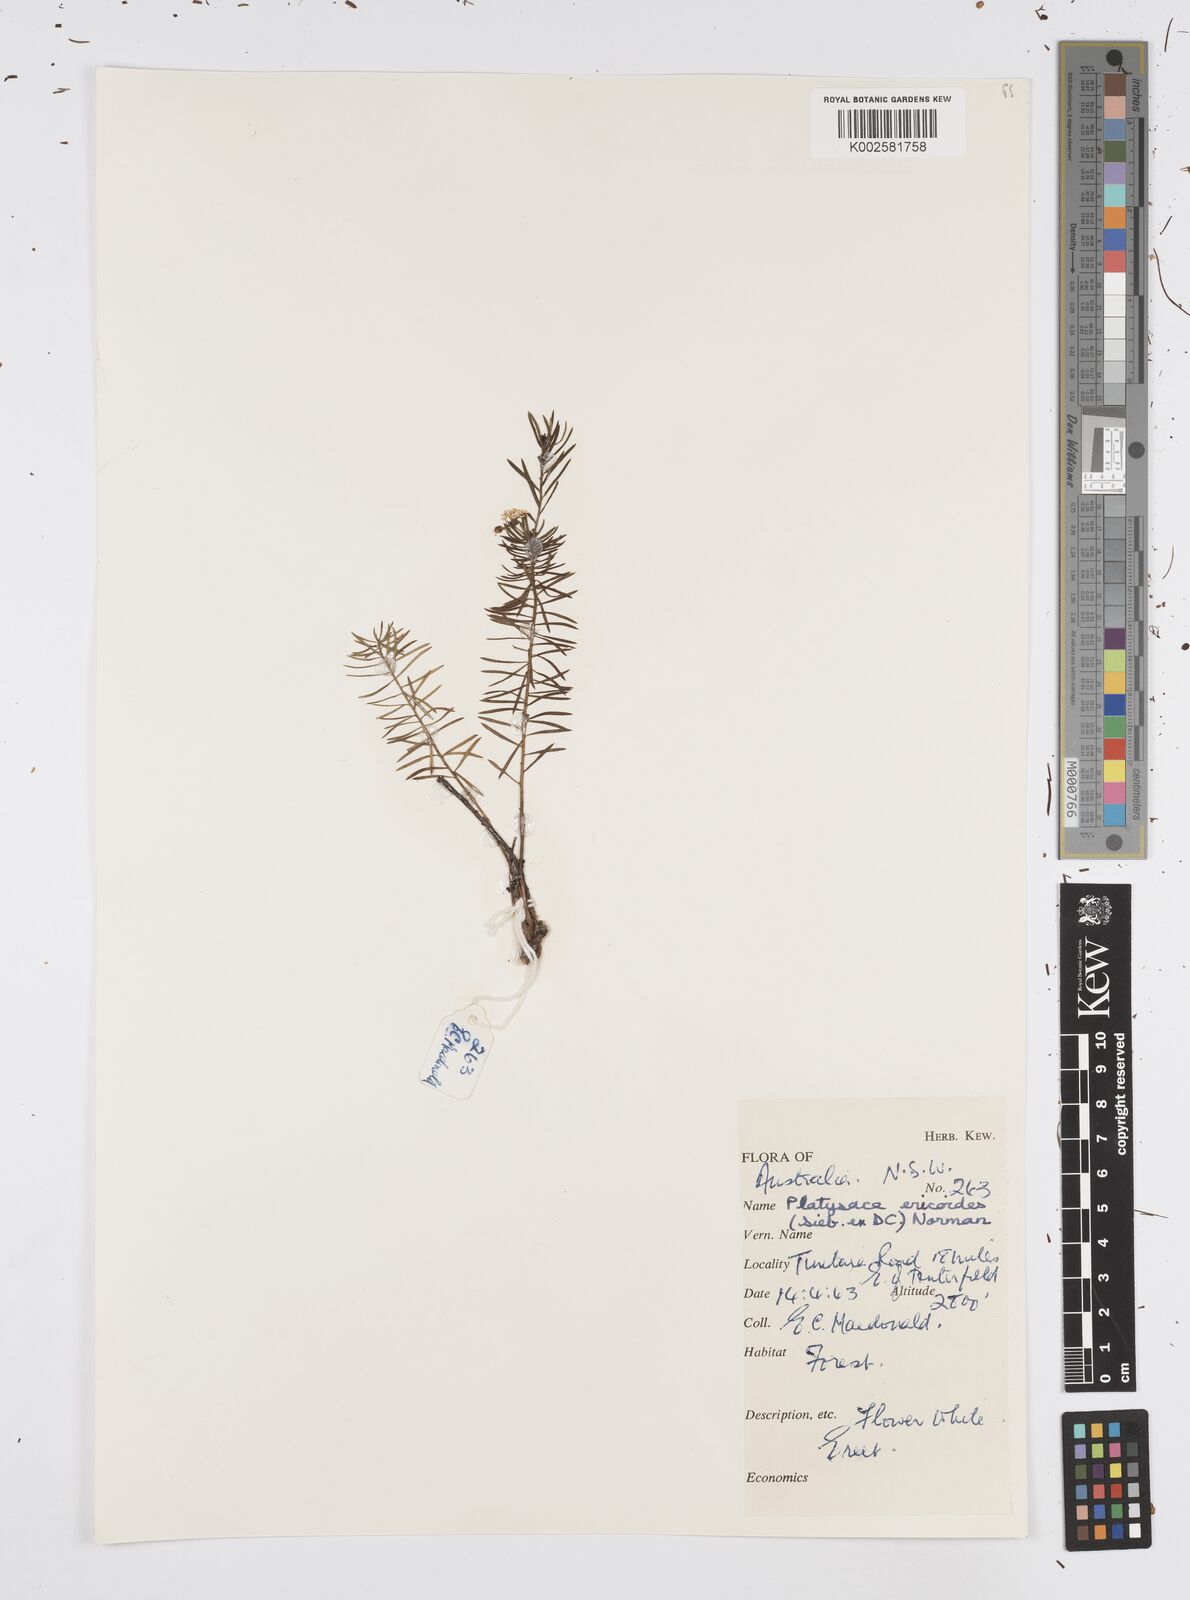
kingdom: Plantae
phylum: Tracheophyta
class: Magnoliopsida
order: Apiales
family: Apiaceae
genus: Platysace
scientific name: Platysace ericoides
